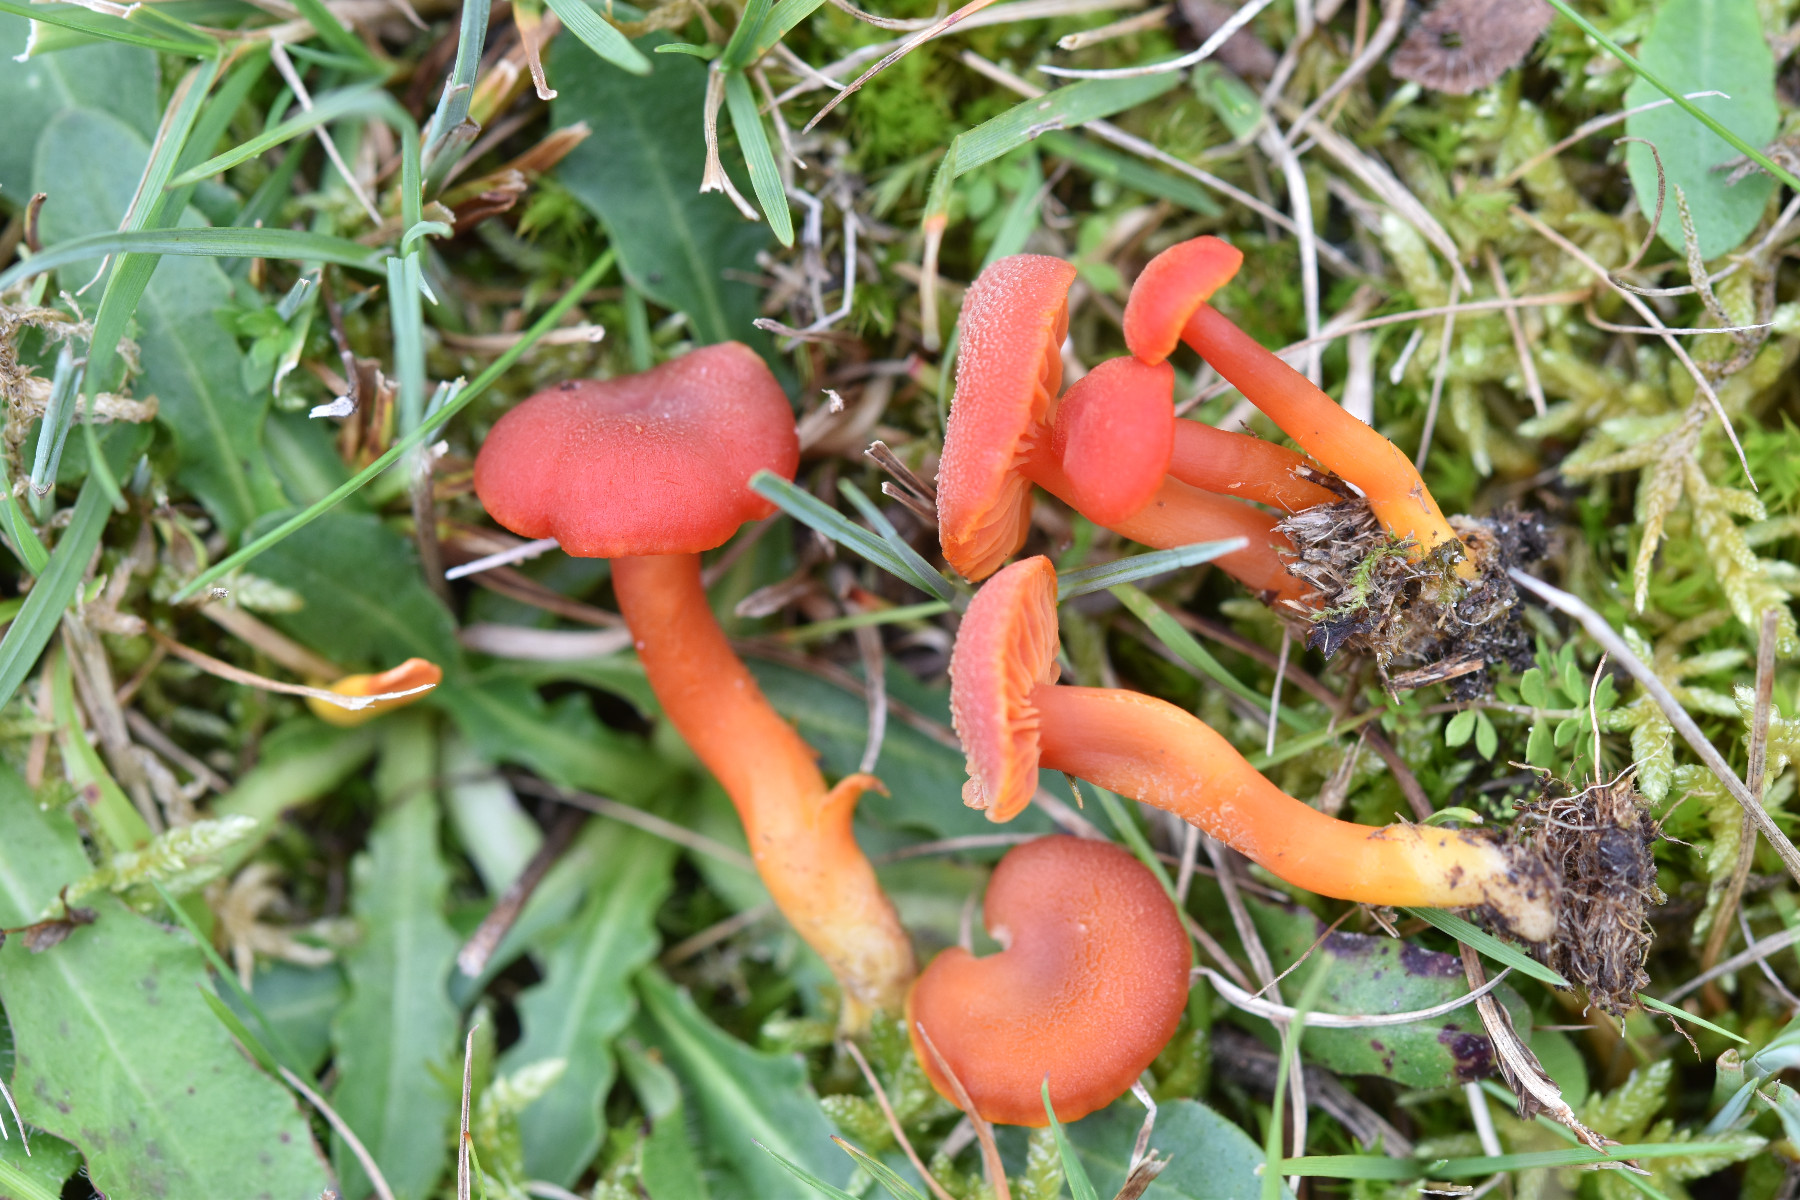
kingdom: Fungi
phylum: Basidiomycota
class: Agaricomycetes
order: Agaricales
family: Hygrophoraceae
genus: Hygrocybe
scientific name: Hygrocybe miniata
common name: mønje-vokshat
